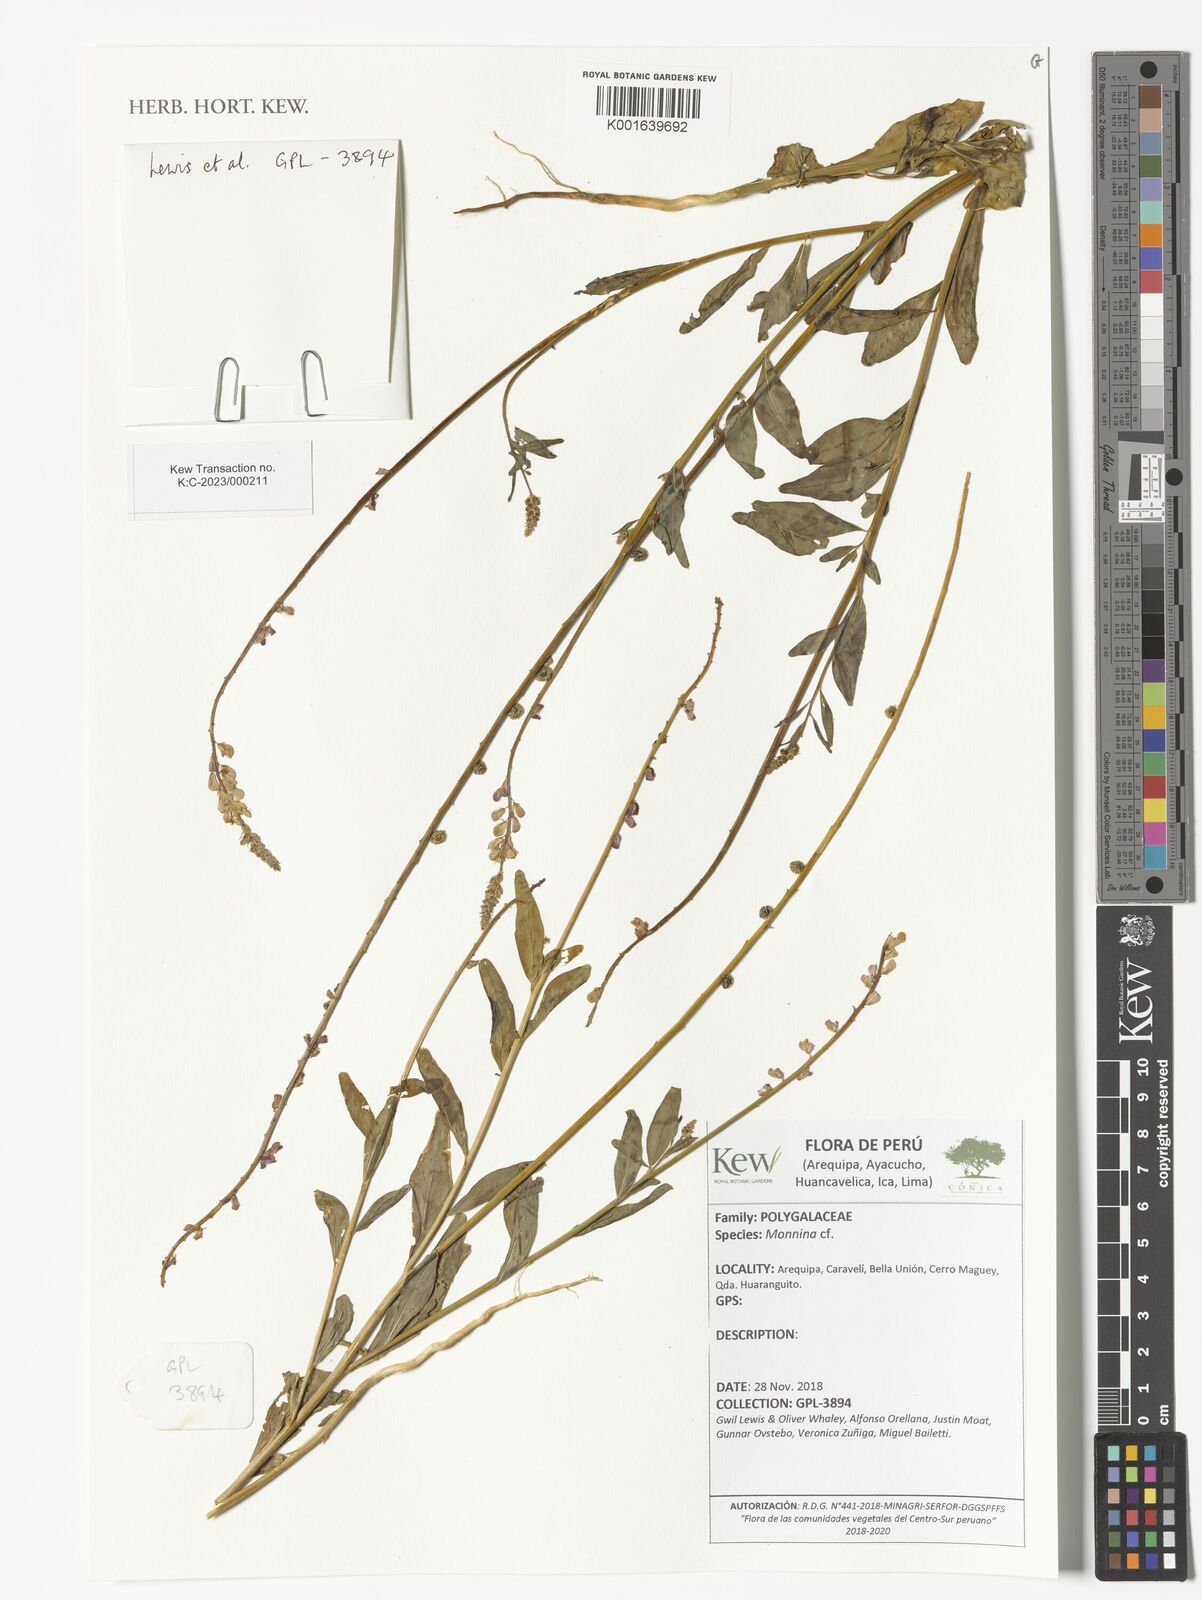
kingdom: Plantae
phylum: Tracheophyta
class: Magnoliopsida
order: Fabales
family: Polygalaceae
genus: Monnina
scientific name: Monnina
